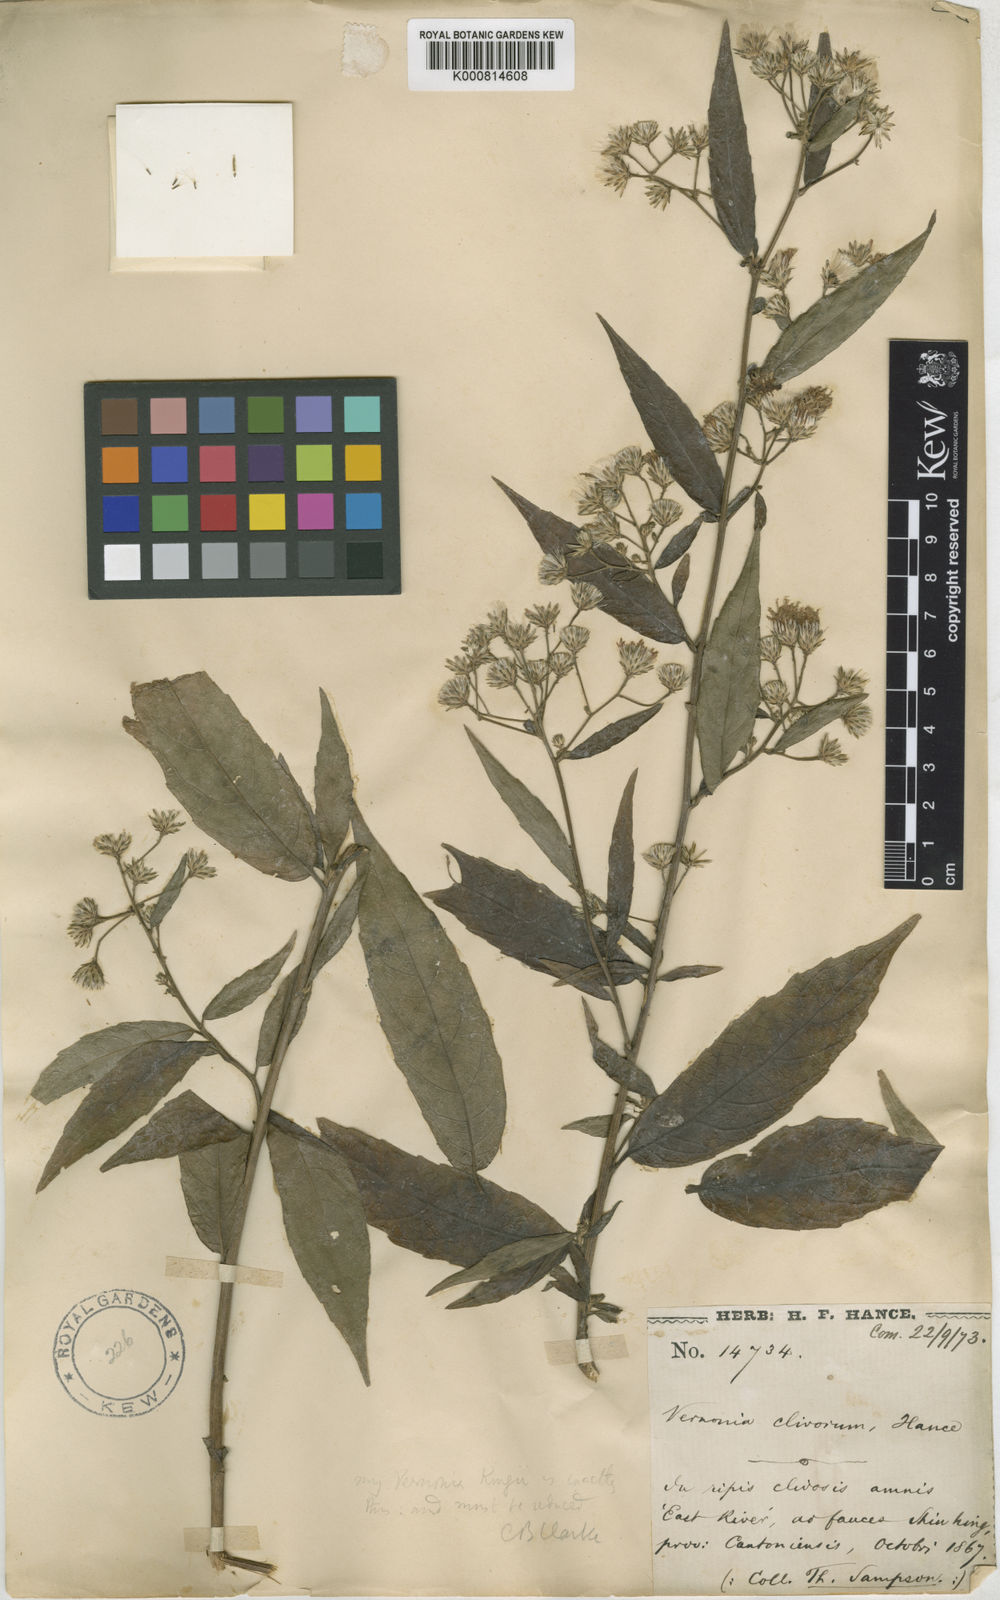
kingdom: Plantae
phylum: Tracheophyta
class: Magnoliopsida
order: Asterales
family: Asteraceae
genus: Acilepis
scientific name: Acilepis clivorum
